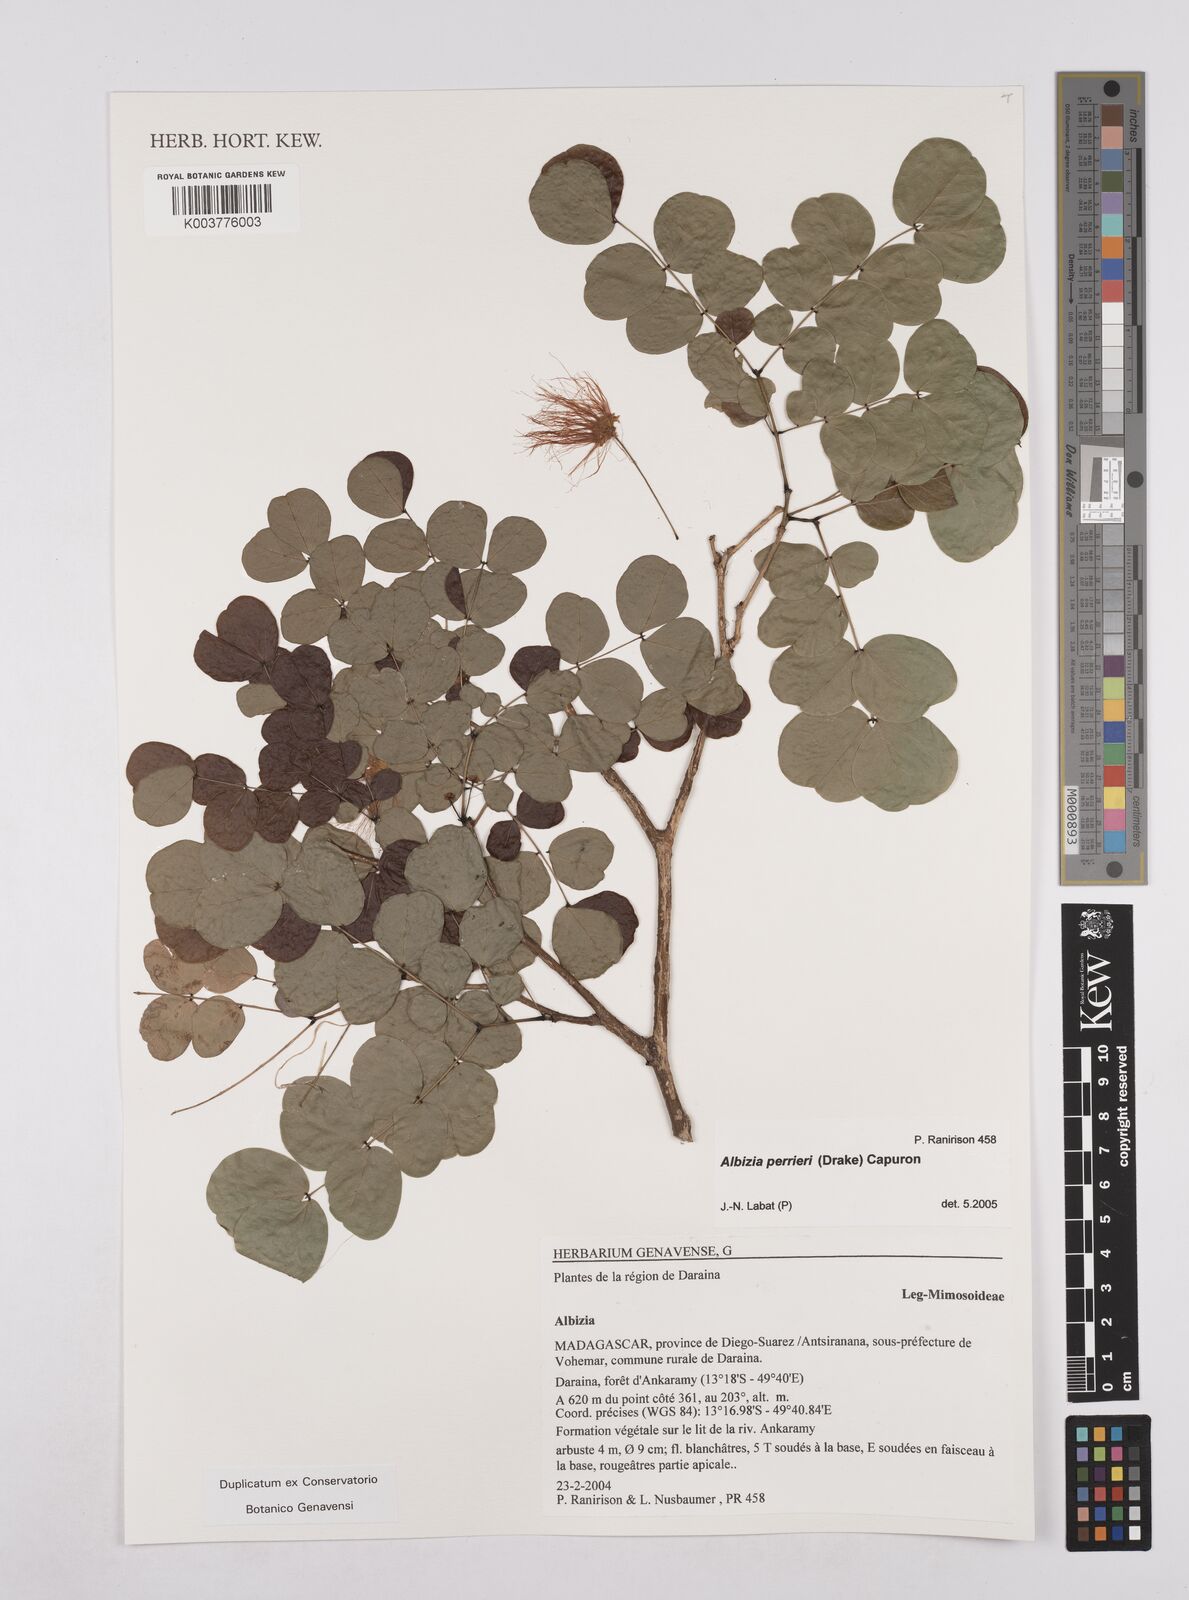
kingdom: Plantae
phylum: Tracheophyta
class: Magnoliopsida
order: Fabales
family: Fabaceae
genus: Albizia
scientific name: Albizia perrieri
